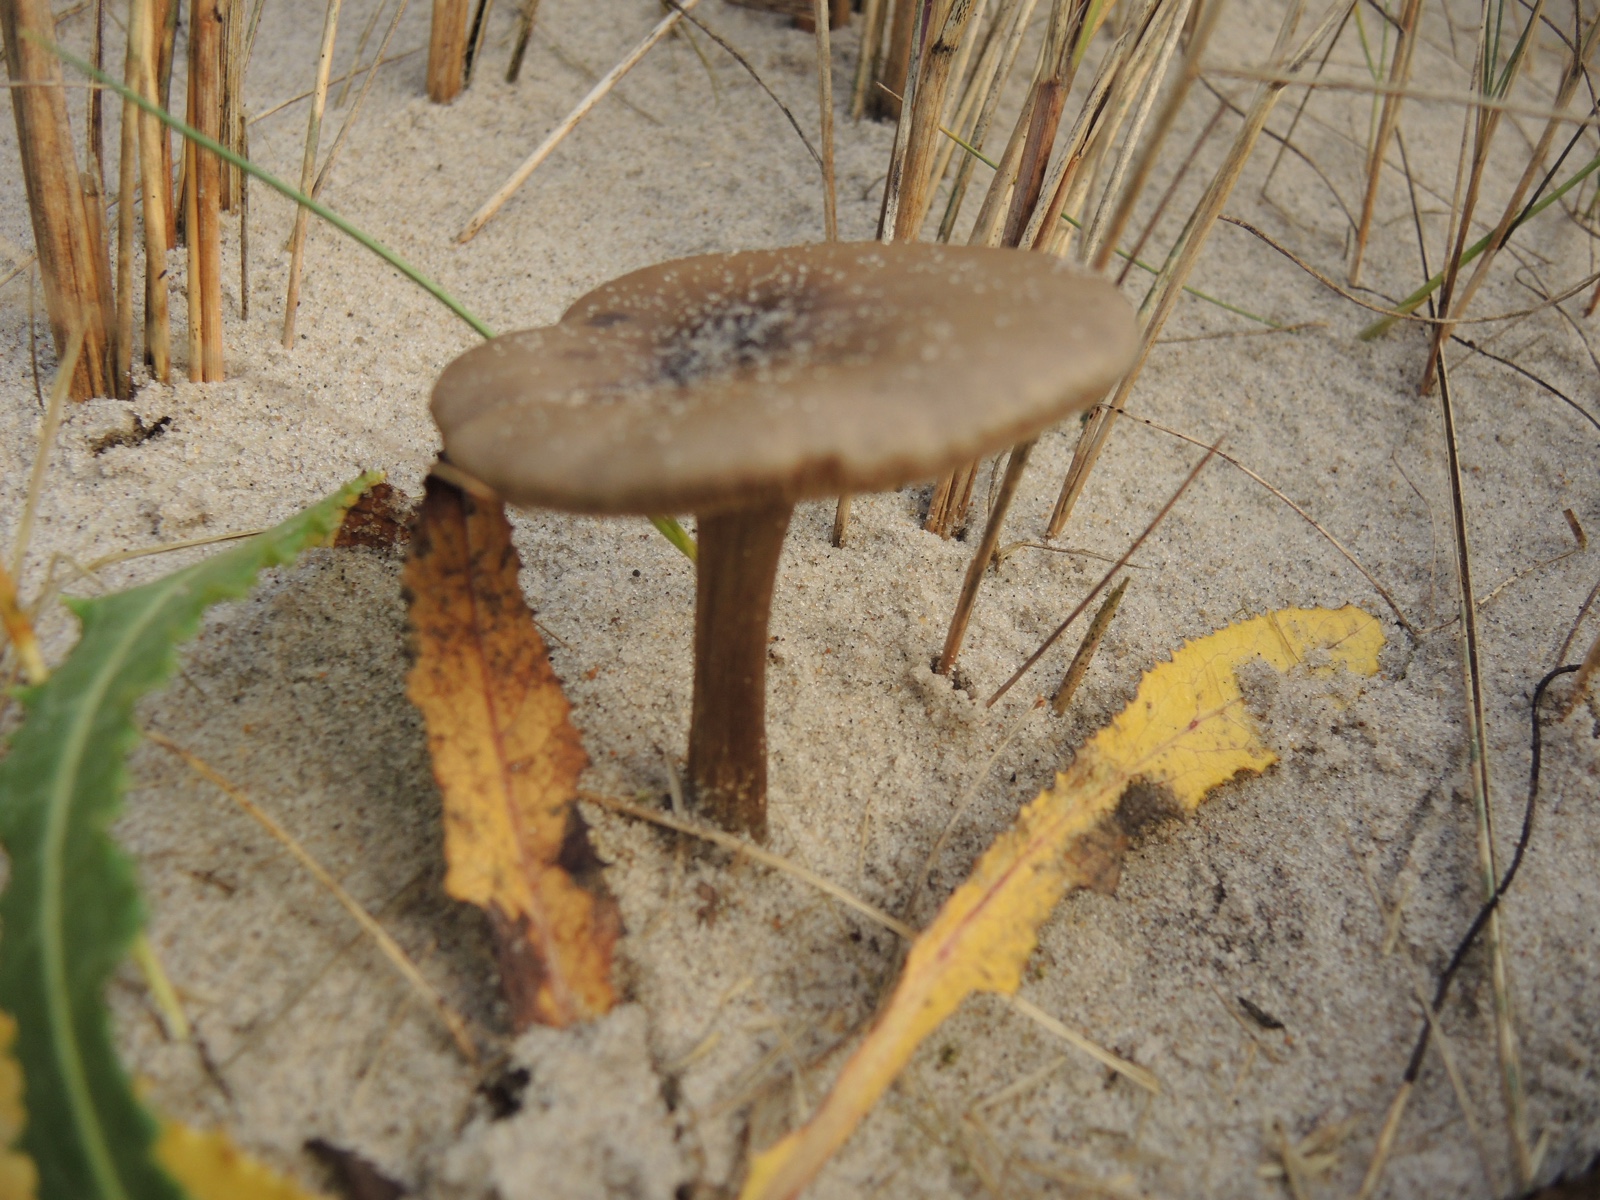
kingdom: Fungi
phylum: Basidiomycota
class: Agaricomycetes
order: Agaricales
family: Tricholomataceae
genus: Melanoleuca
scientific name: Melanoleuca ammophila
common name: gråbladet munkehat
